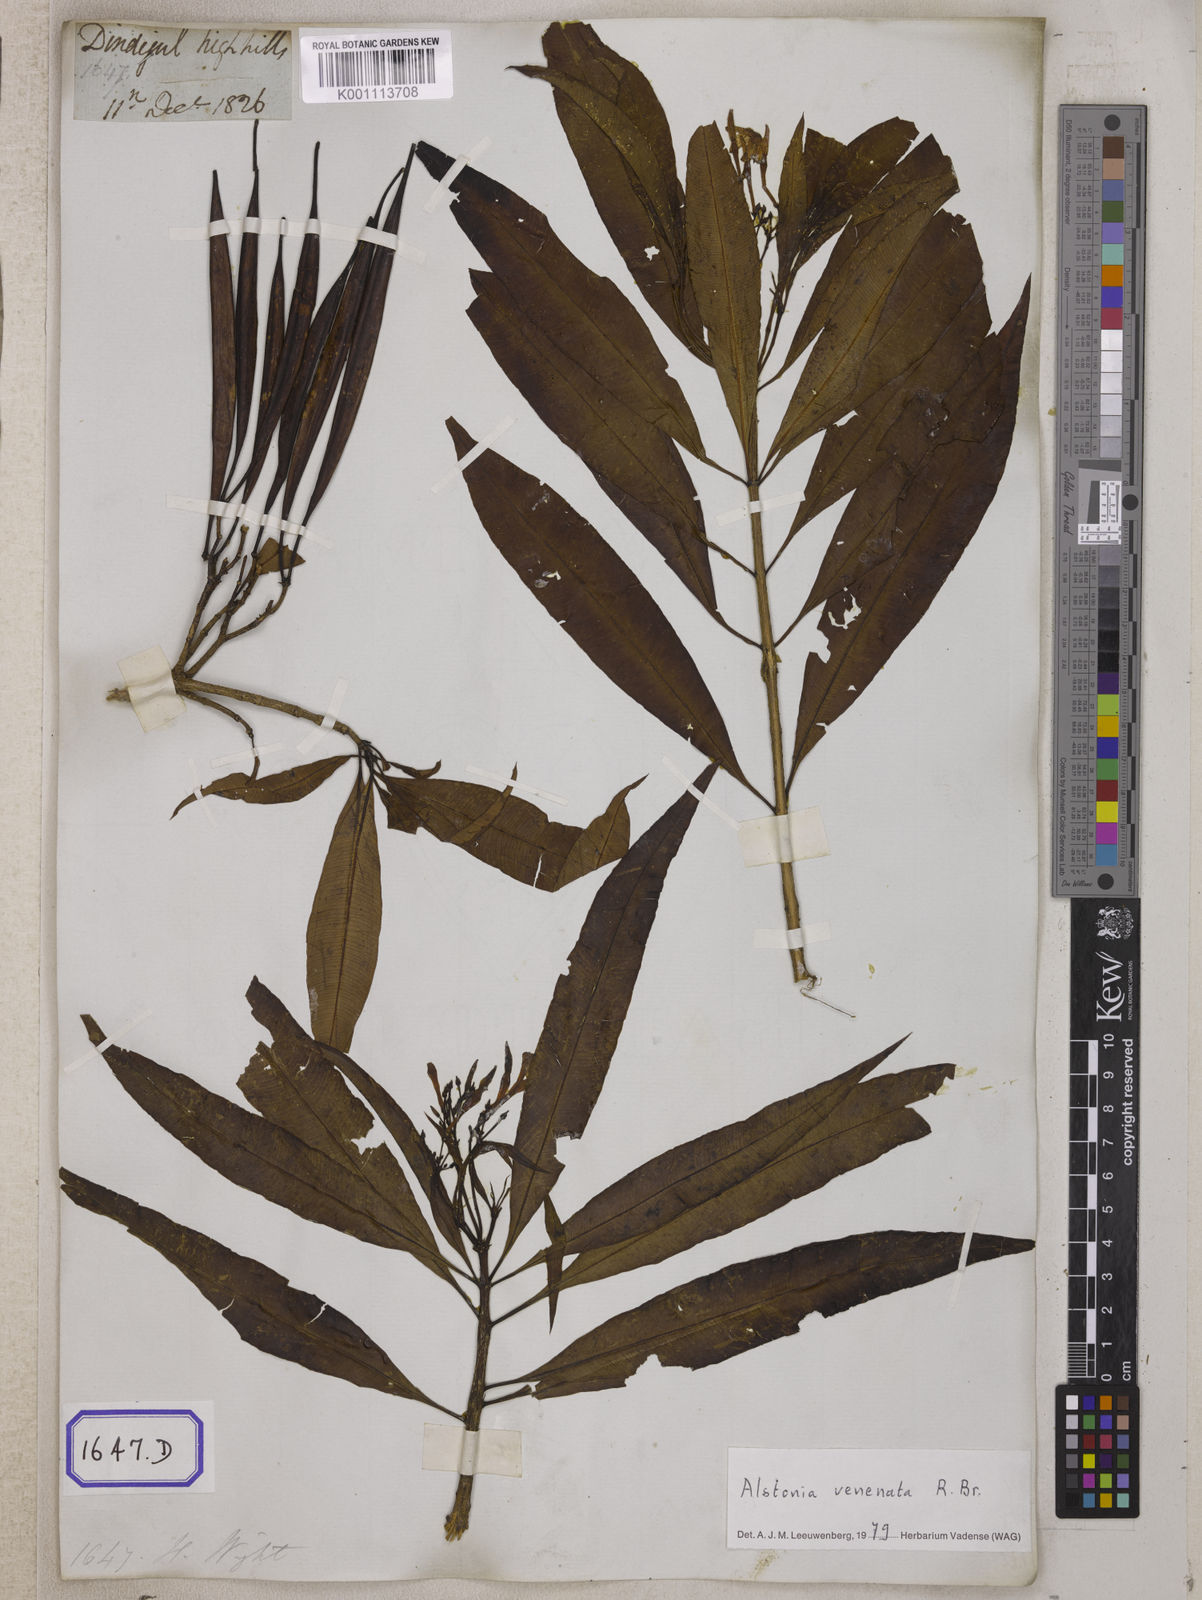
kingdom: Plantae
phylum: Tracheophyta
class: Magnoliopsida
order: Gentianales
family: Apocynaceae
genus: Alstonia
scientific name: Alstonia venenata
